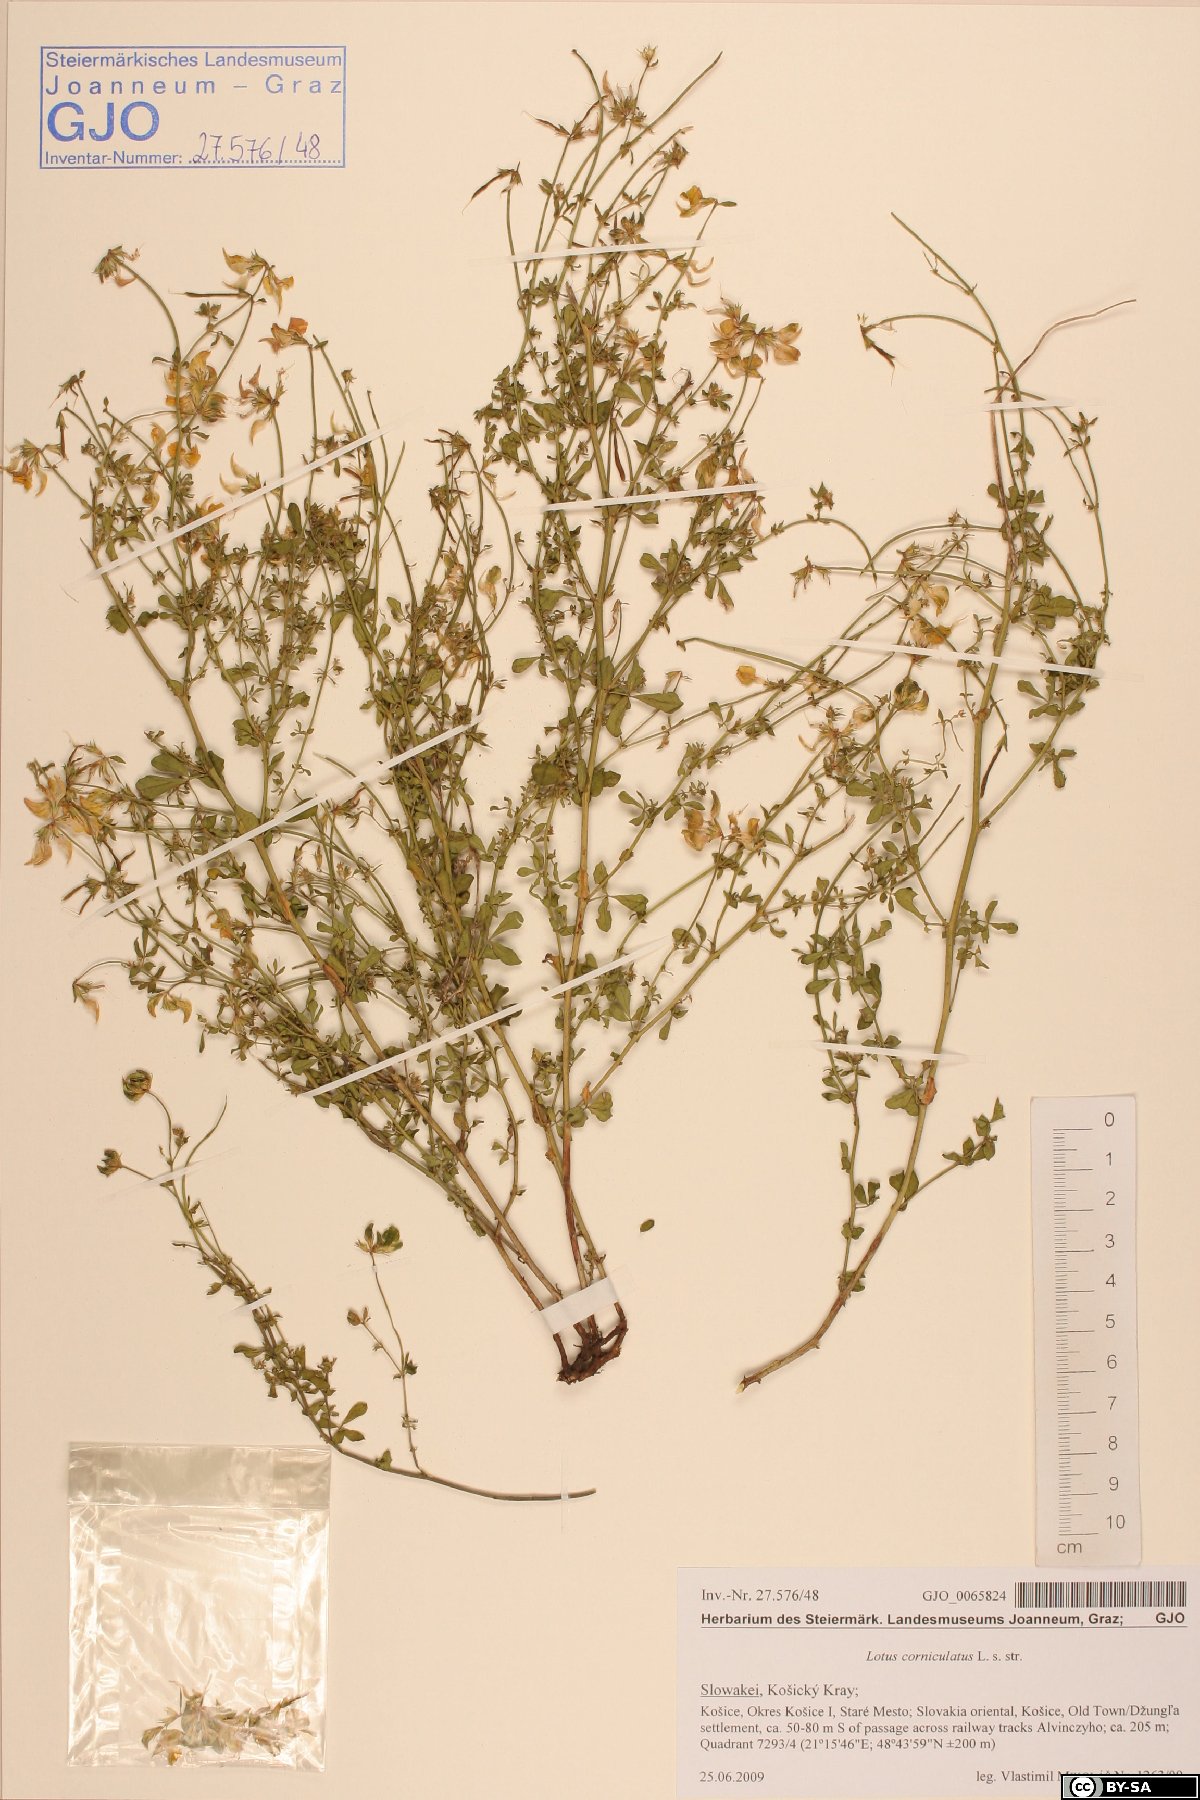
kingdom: Plantae
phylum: Tracheophyta
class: Magnoliopsida
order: Fabales
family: Fabaceae
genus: Lotus
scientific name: Lotus corniculatus
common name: Common bird's-foot-trefoil
